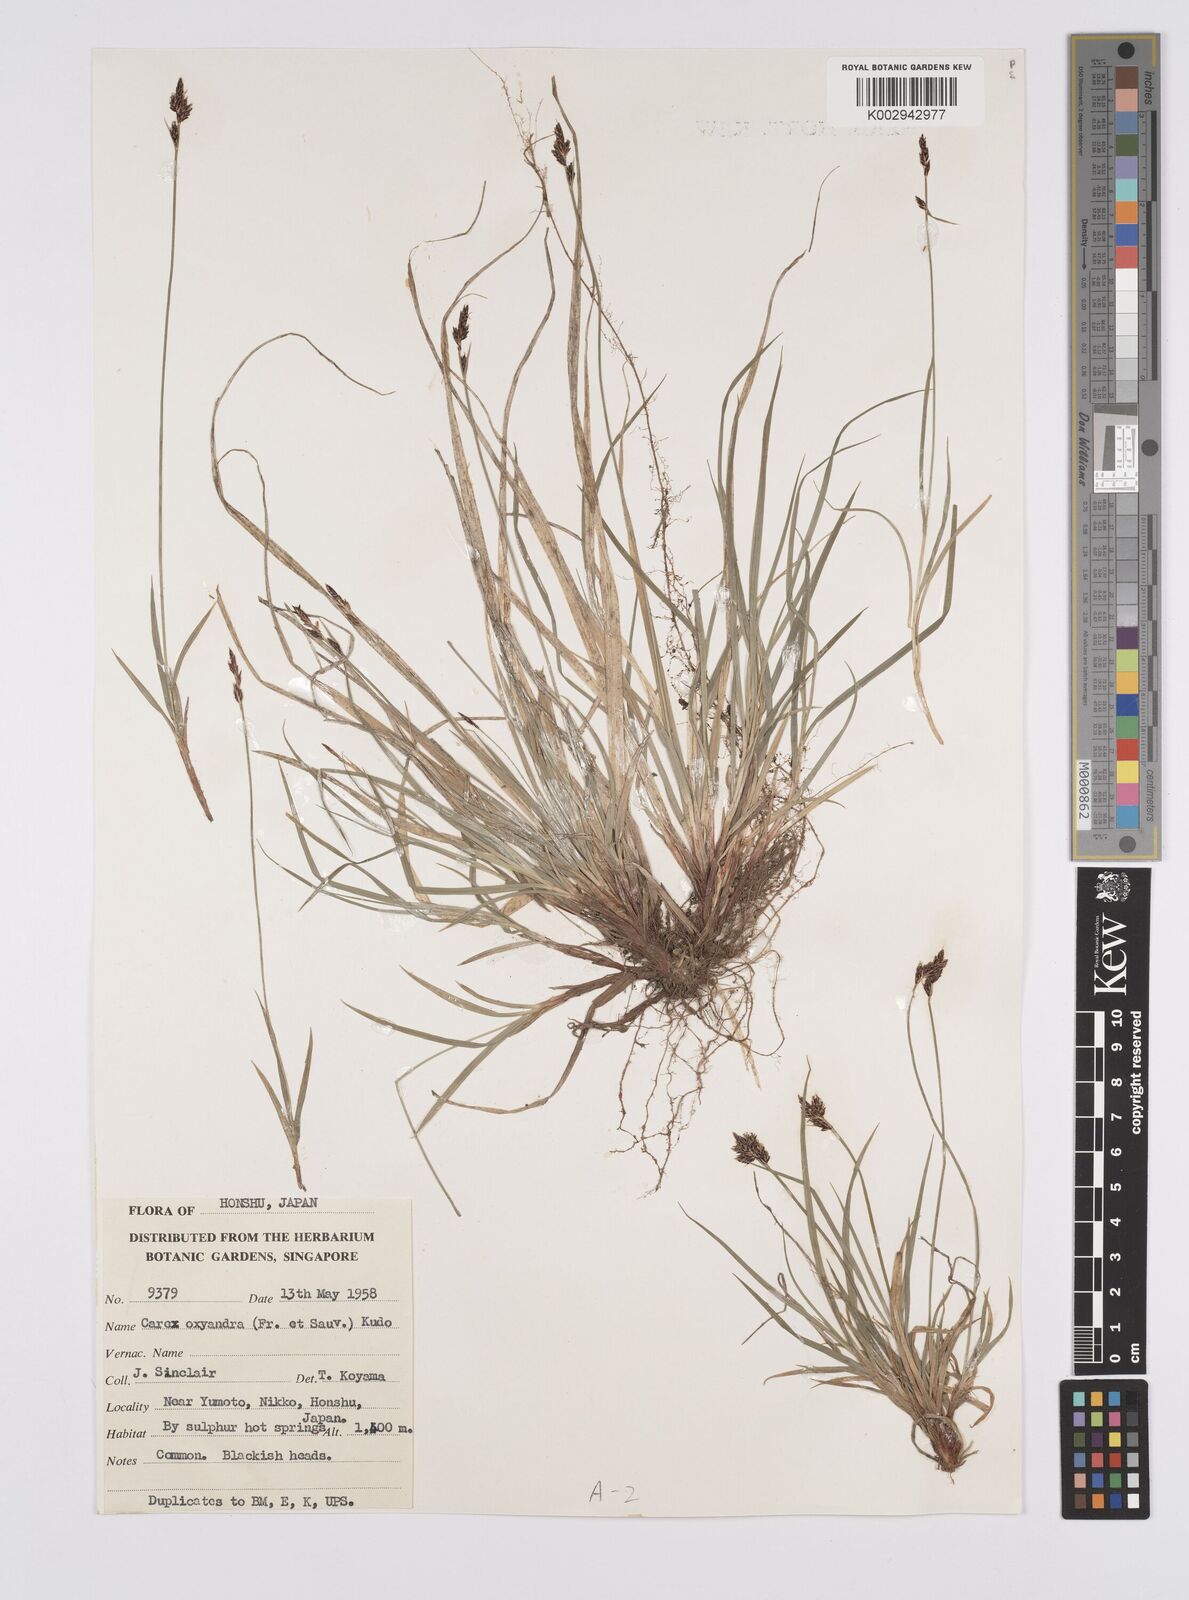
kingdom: Plantae
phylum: Tracheophyta
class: Liliopsida
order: Poales
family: Cyperaceae
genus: Carex
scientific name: Carex oxyandra
